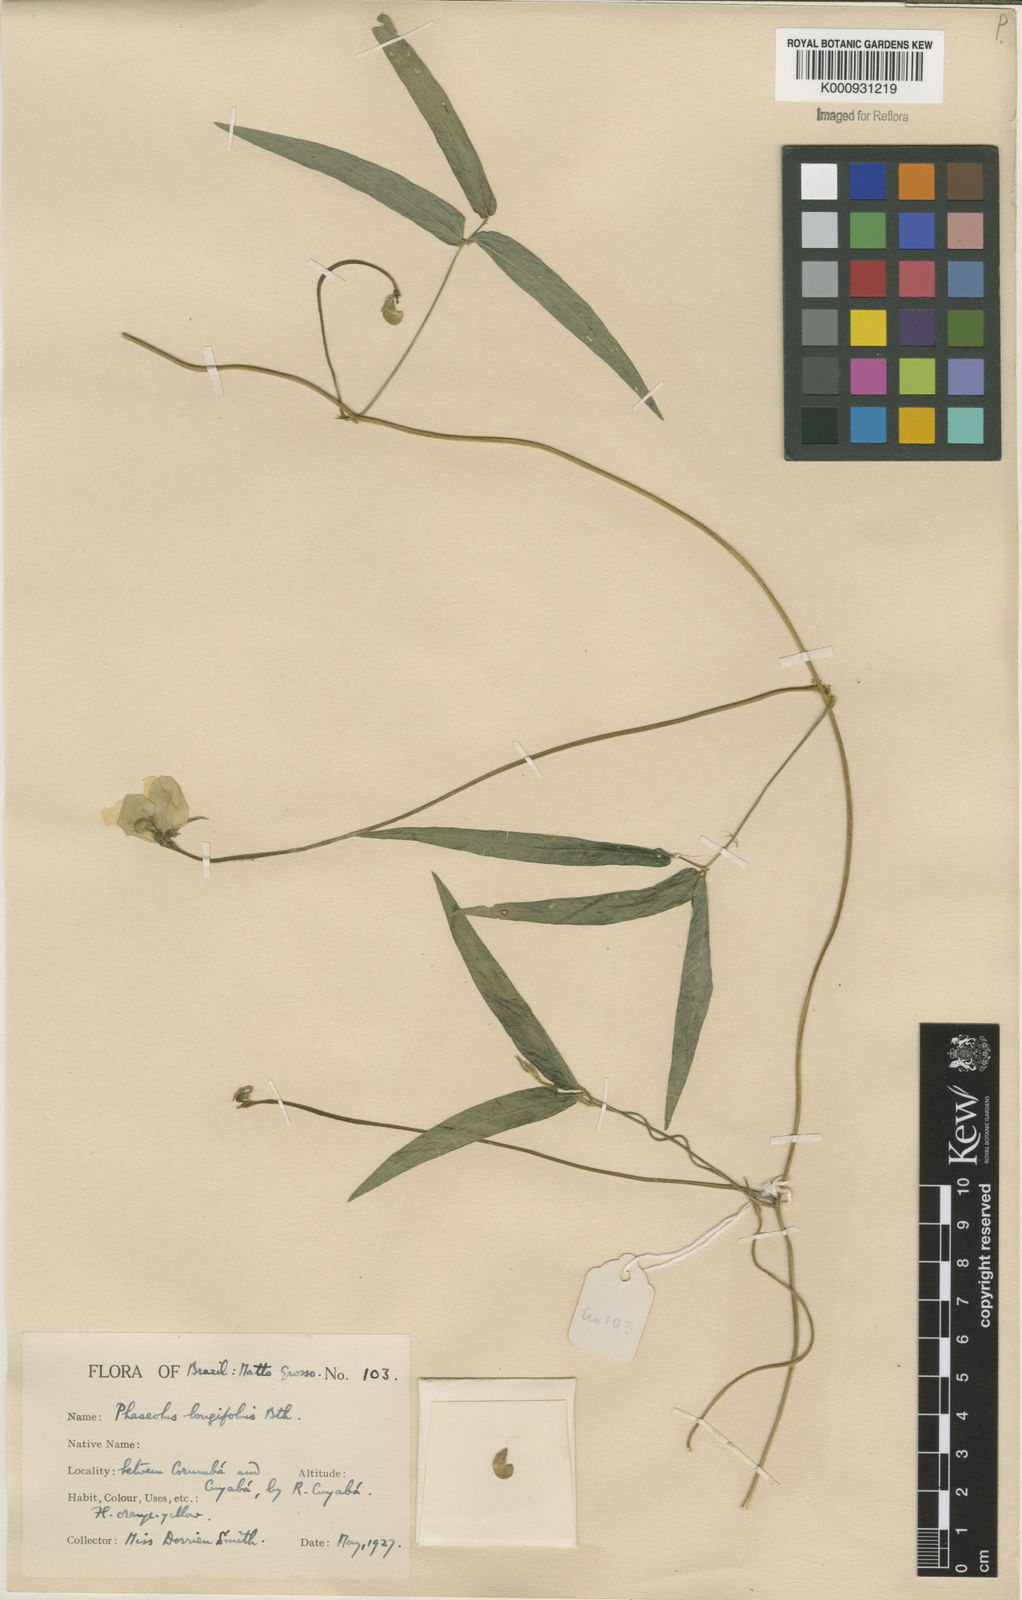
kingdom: Plantae
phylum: Tracheophyta
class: Magnoliopsida
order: Fabales
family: Fabaceae
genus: Vigna
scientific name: Vigna longifolia
